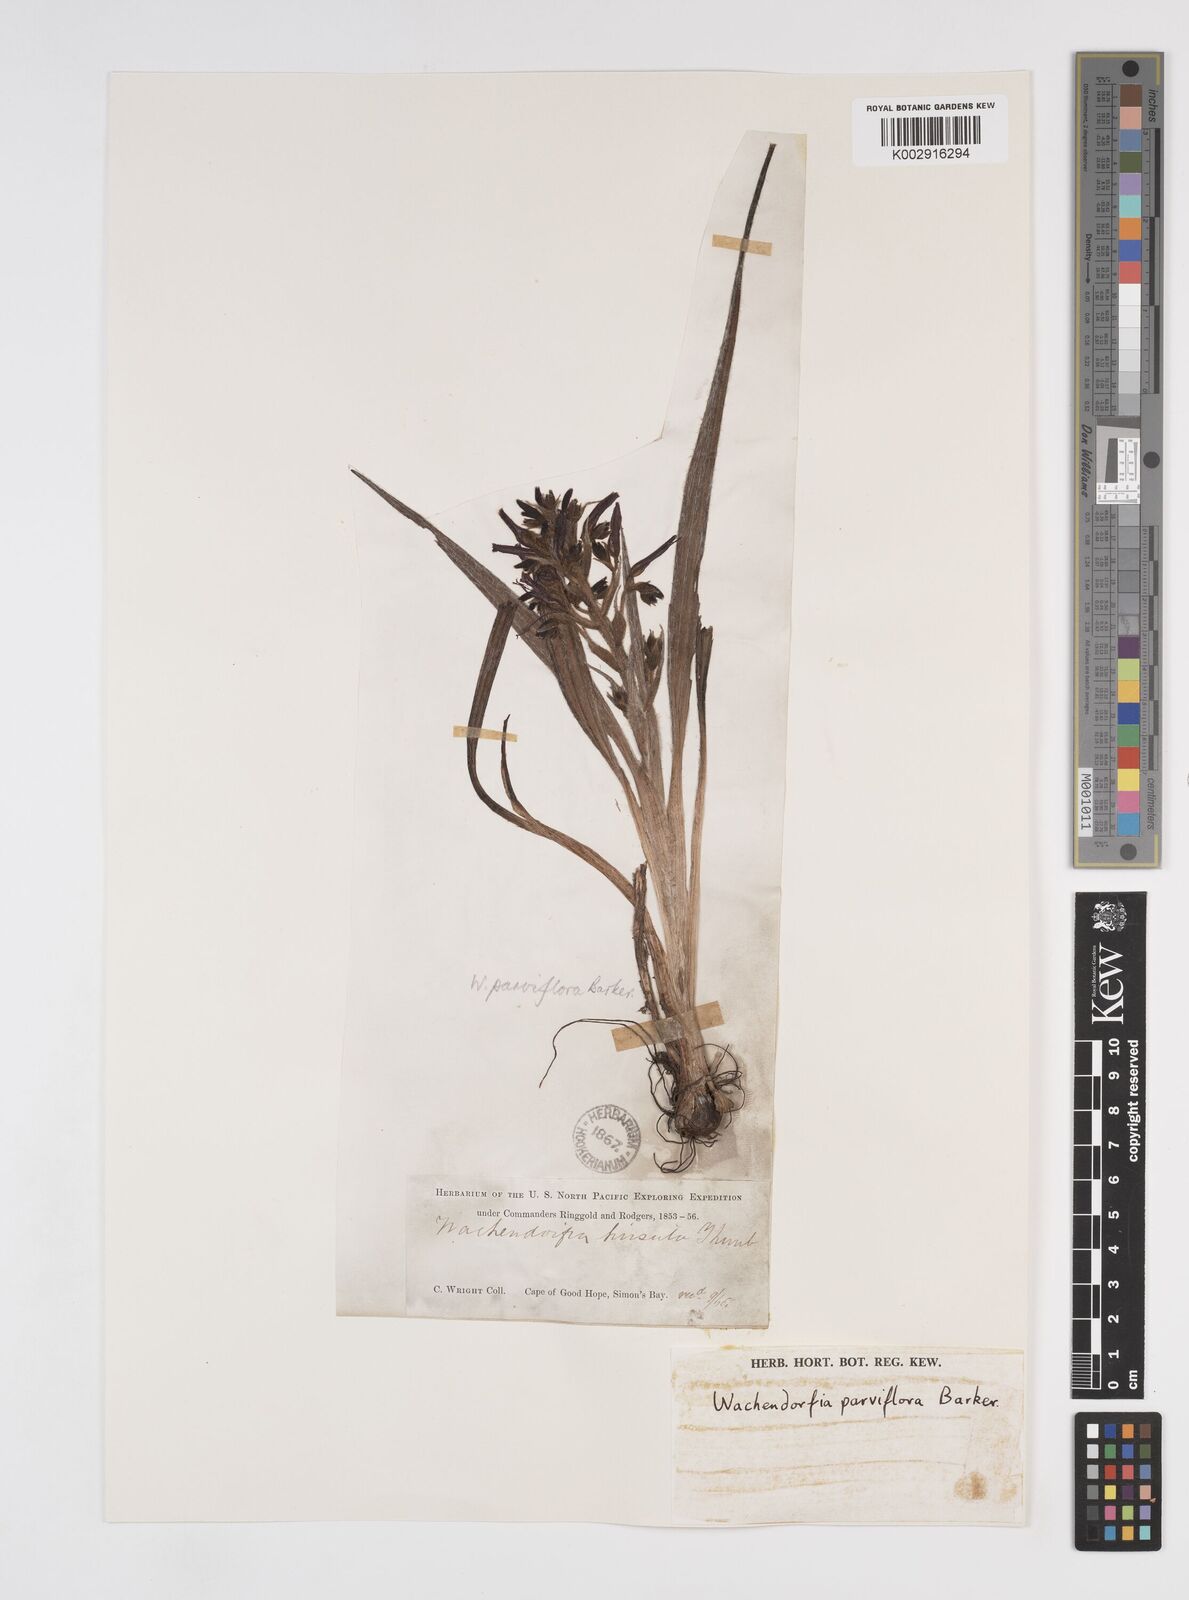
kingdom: Plantae
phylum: Tracheophyta
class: Liliopsida
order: Commelinales
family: Haemodoraceae
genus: Wachendorfia
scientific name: Wachendorfia multiflora
